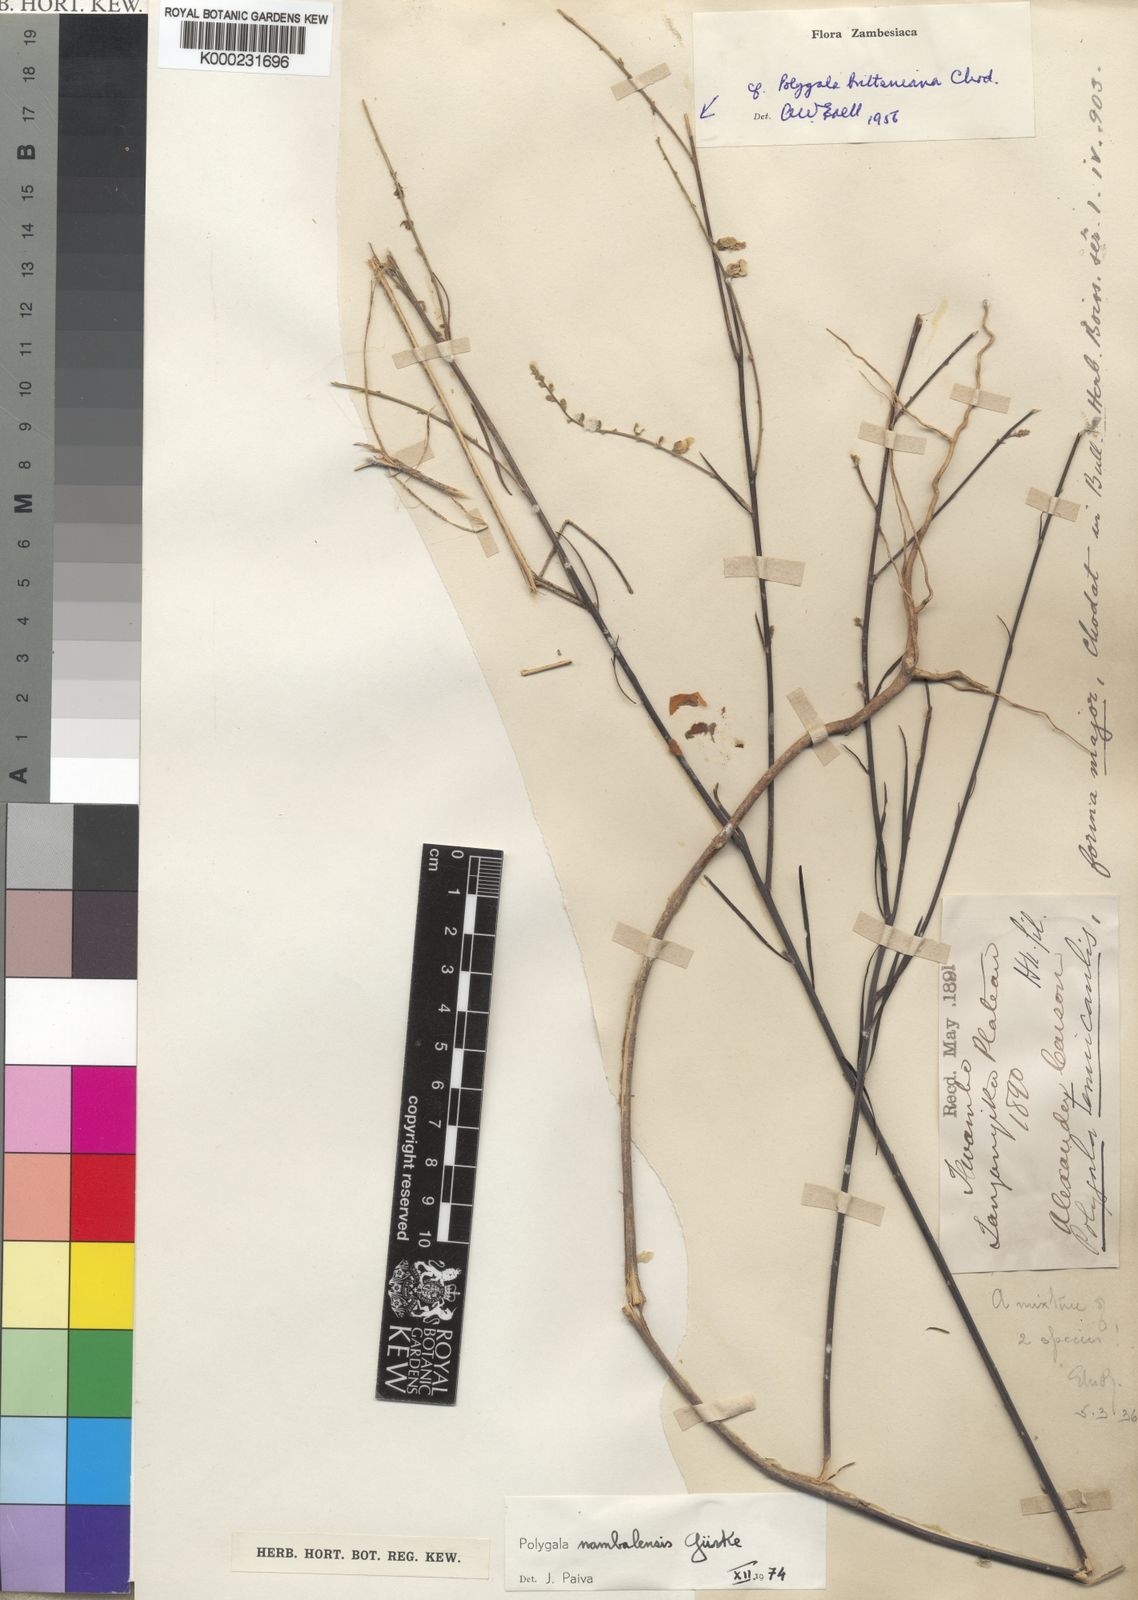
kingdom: Plantae
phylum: Tracheophyta
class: Magnoliopsida
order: Fabales
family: Polygalaceae
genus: Polygala
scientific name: Polygala
